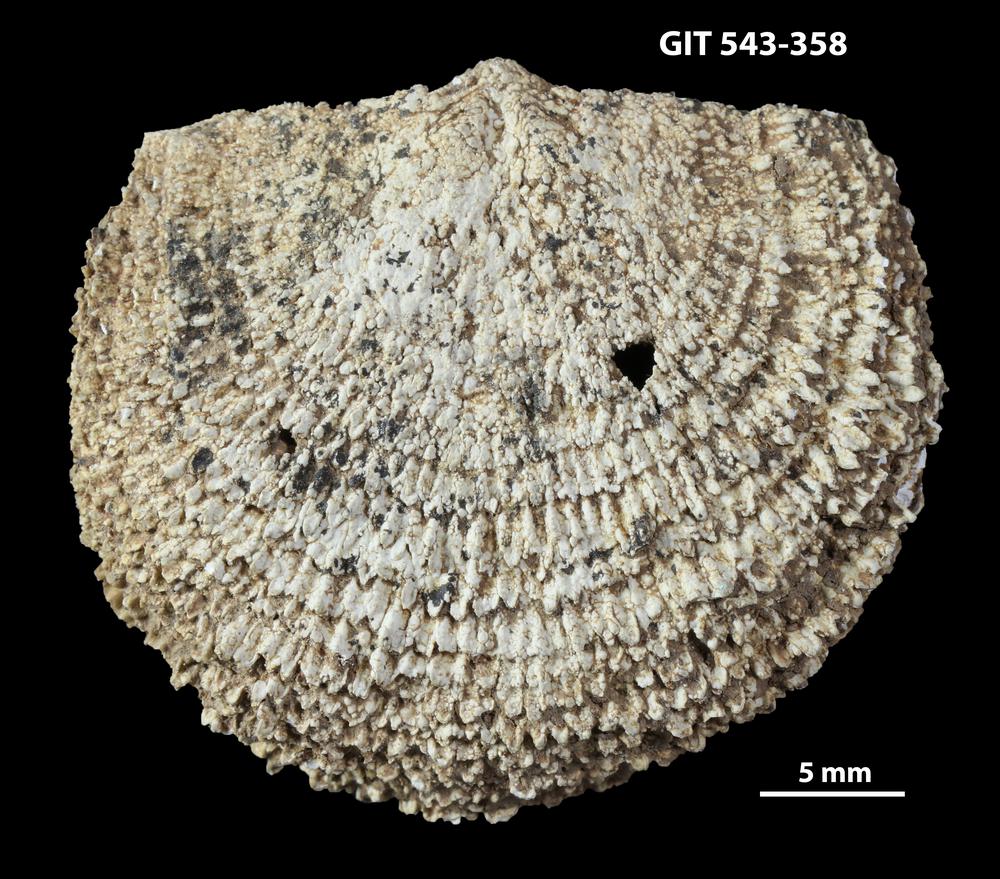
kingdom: Animalia
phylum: Brachiopoda
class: Rhynchonellata
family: Clitambonitidae
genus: Clitambonites
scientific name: Clitambonites Orthisina schmidti
